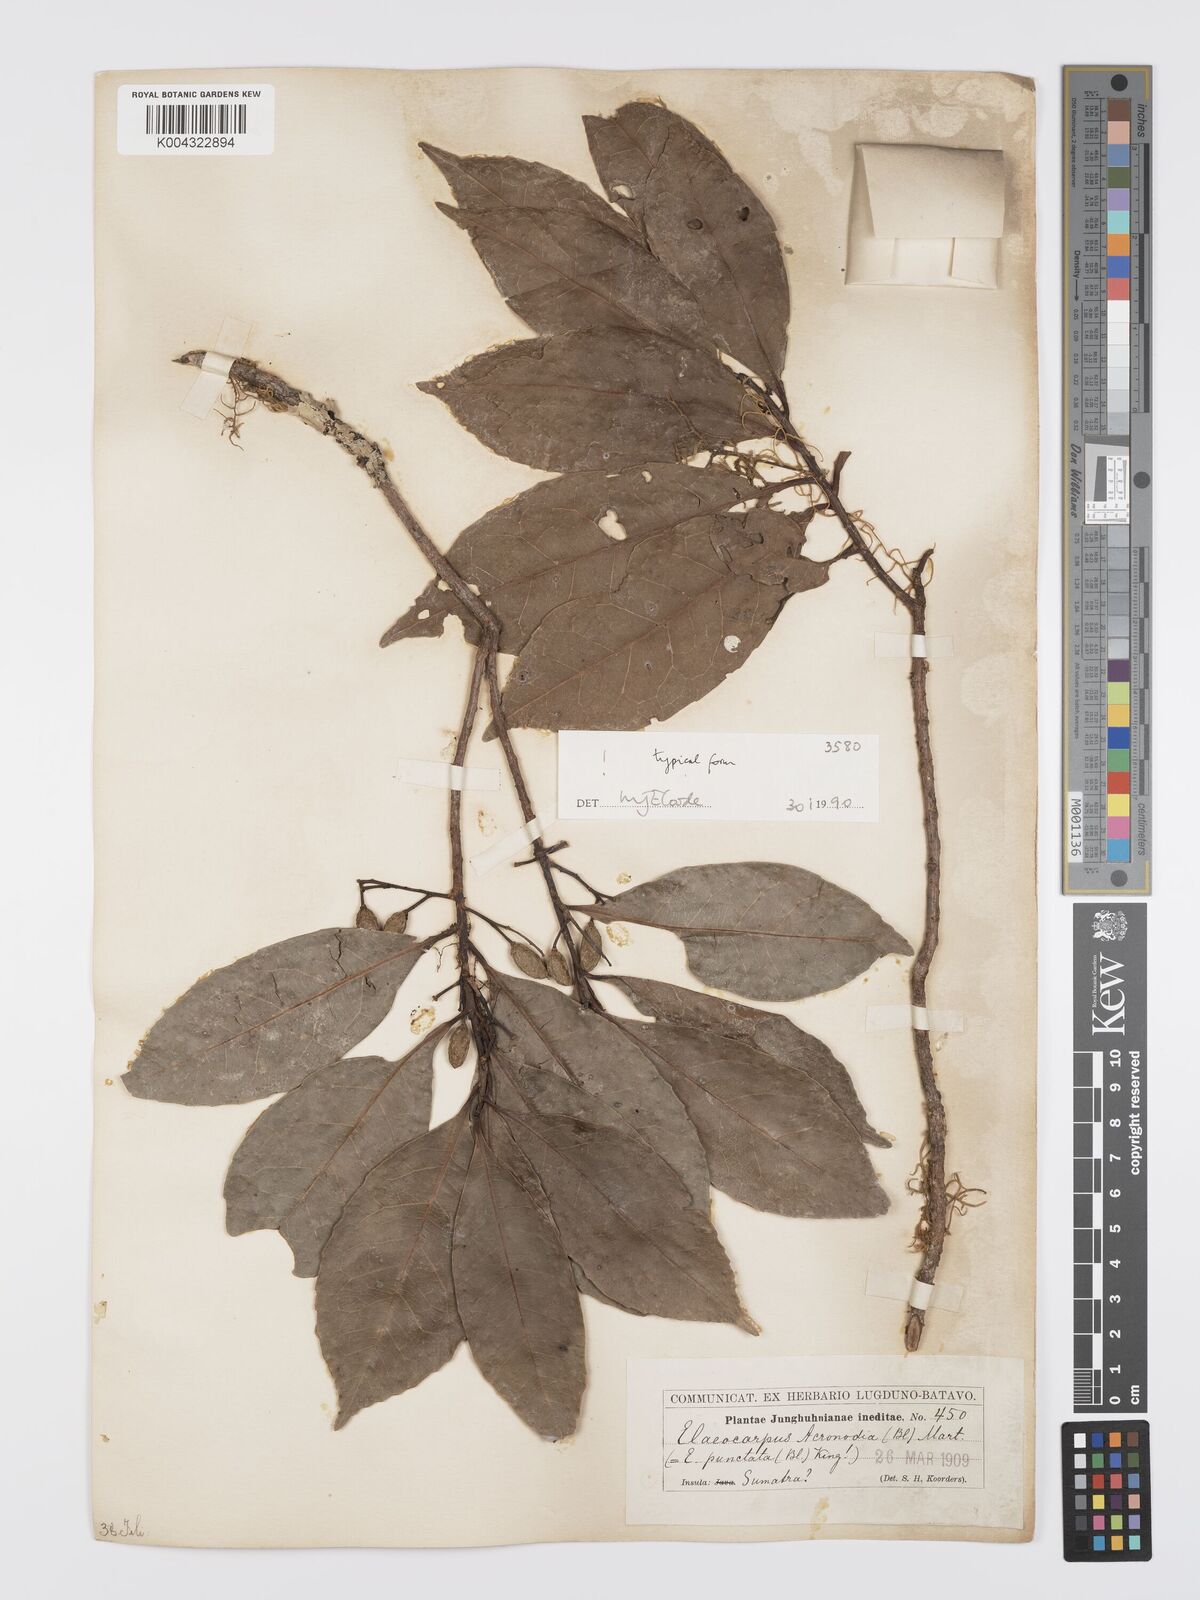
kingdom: Plantae
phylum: Tracheophyta
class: Magnoliopsida
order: Oxalidales
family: Elaeocarpaceae
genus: Elaeocarpus
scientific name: Elaeocarpus acronodia
